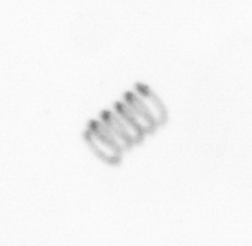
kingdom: Chromista
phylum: Ochrophyta
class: Bacillariophyceae
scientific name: Bacillariophyceae
